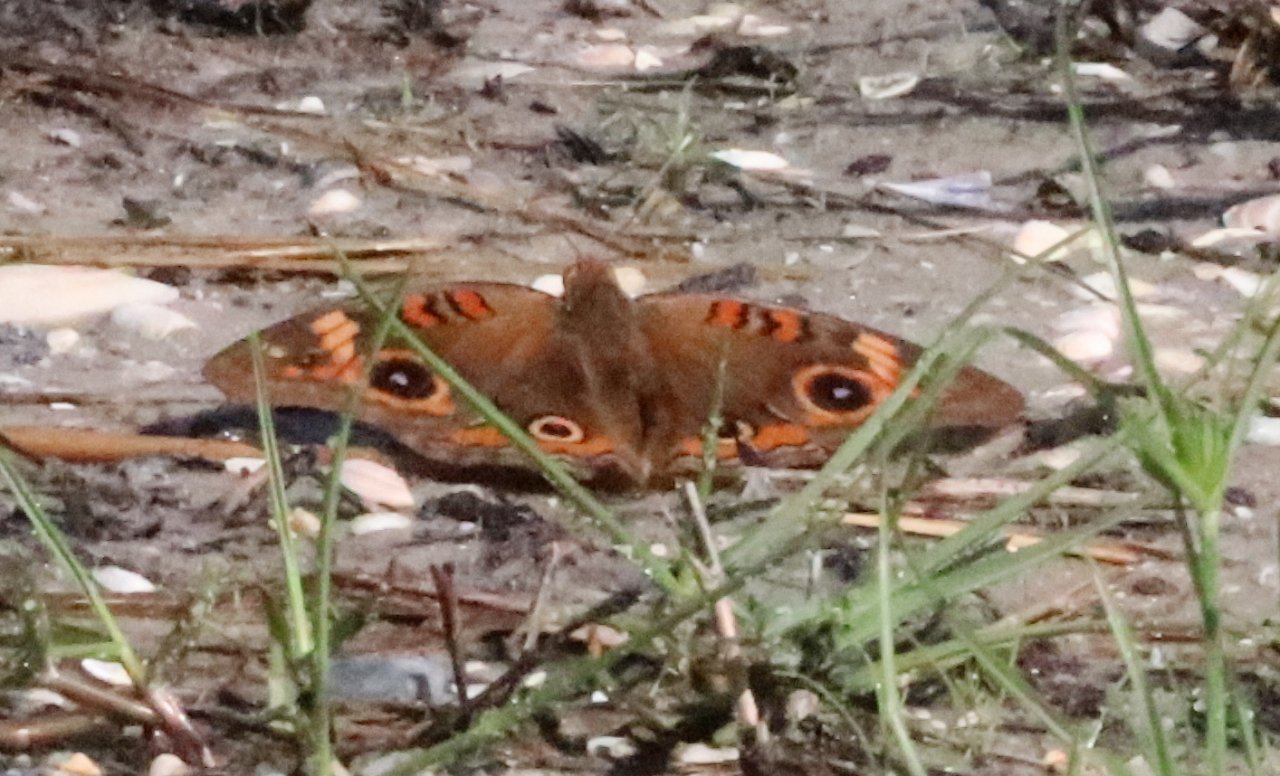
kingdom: Animalia
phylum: Arthropoda
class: Insecta
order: Lepidoptera
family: Nymphalidae
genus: Junonia
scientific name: Junonia coenia
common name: Common Buckeye
